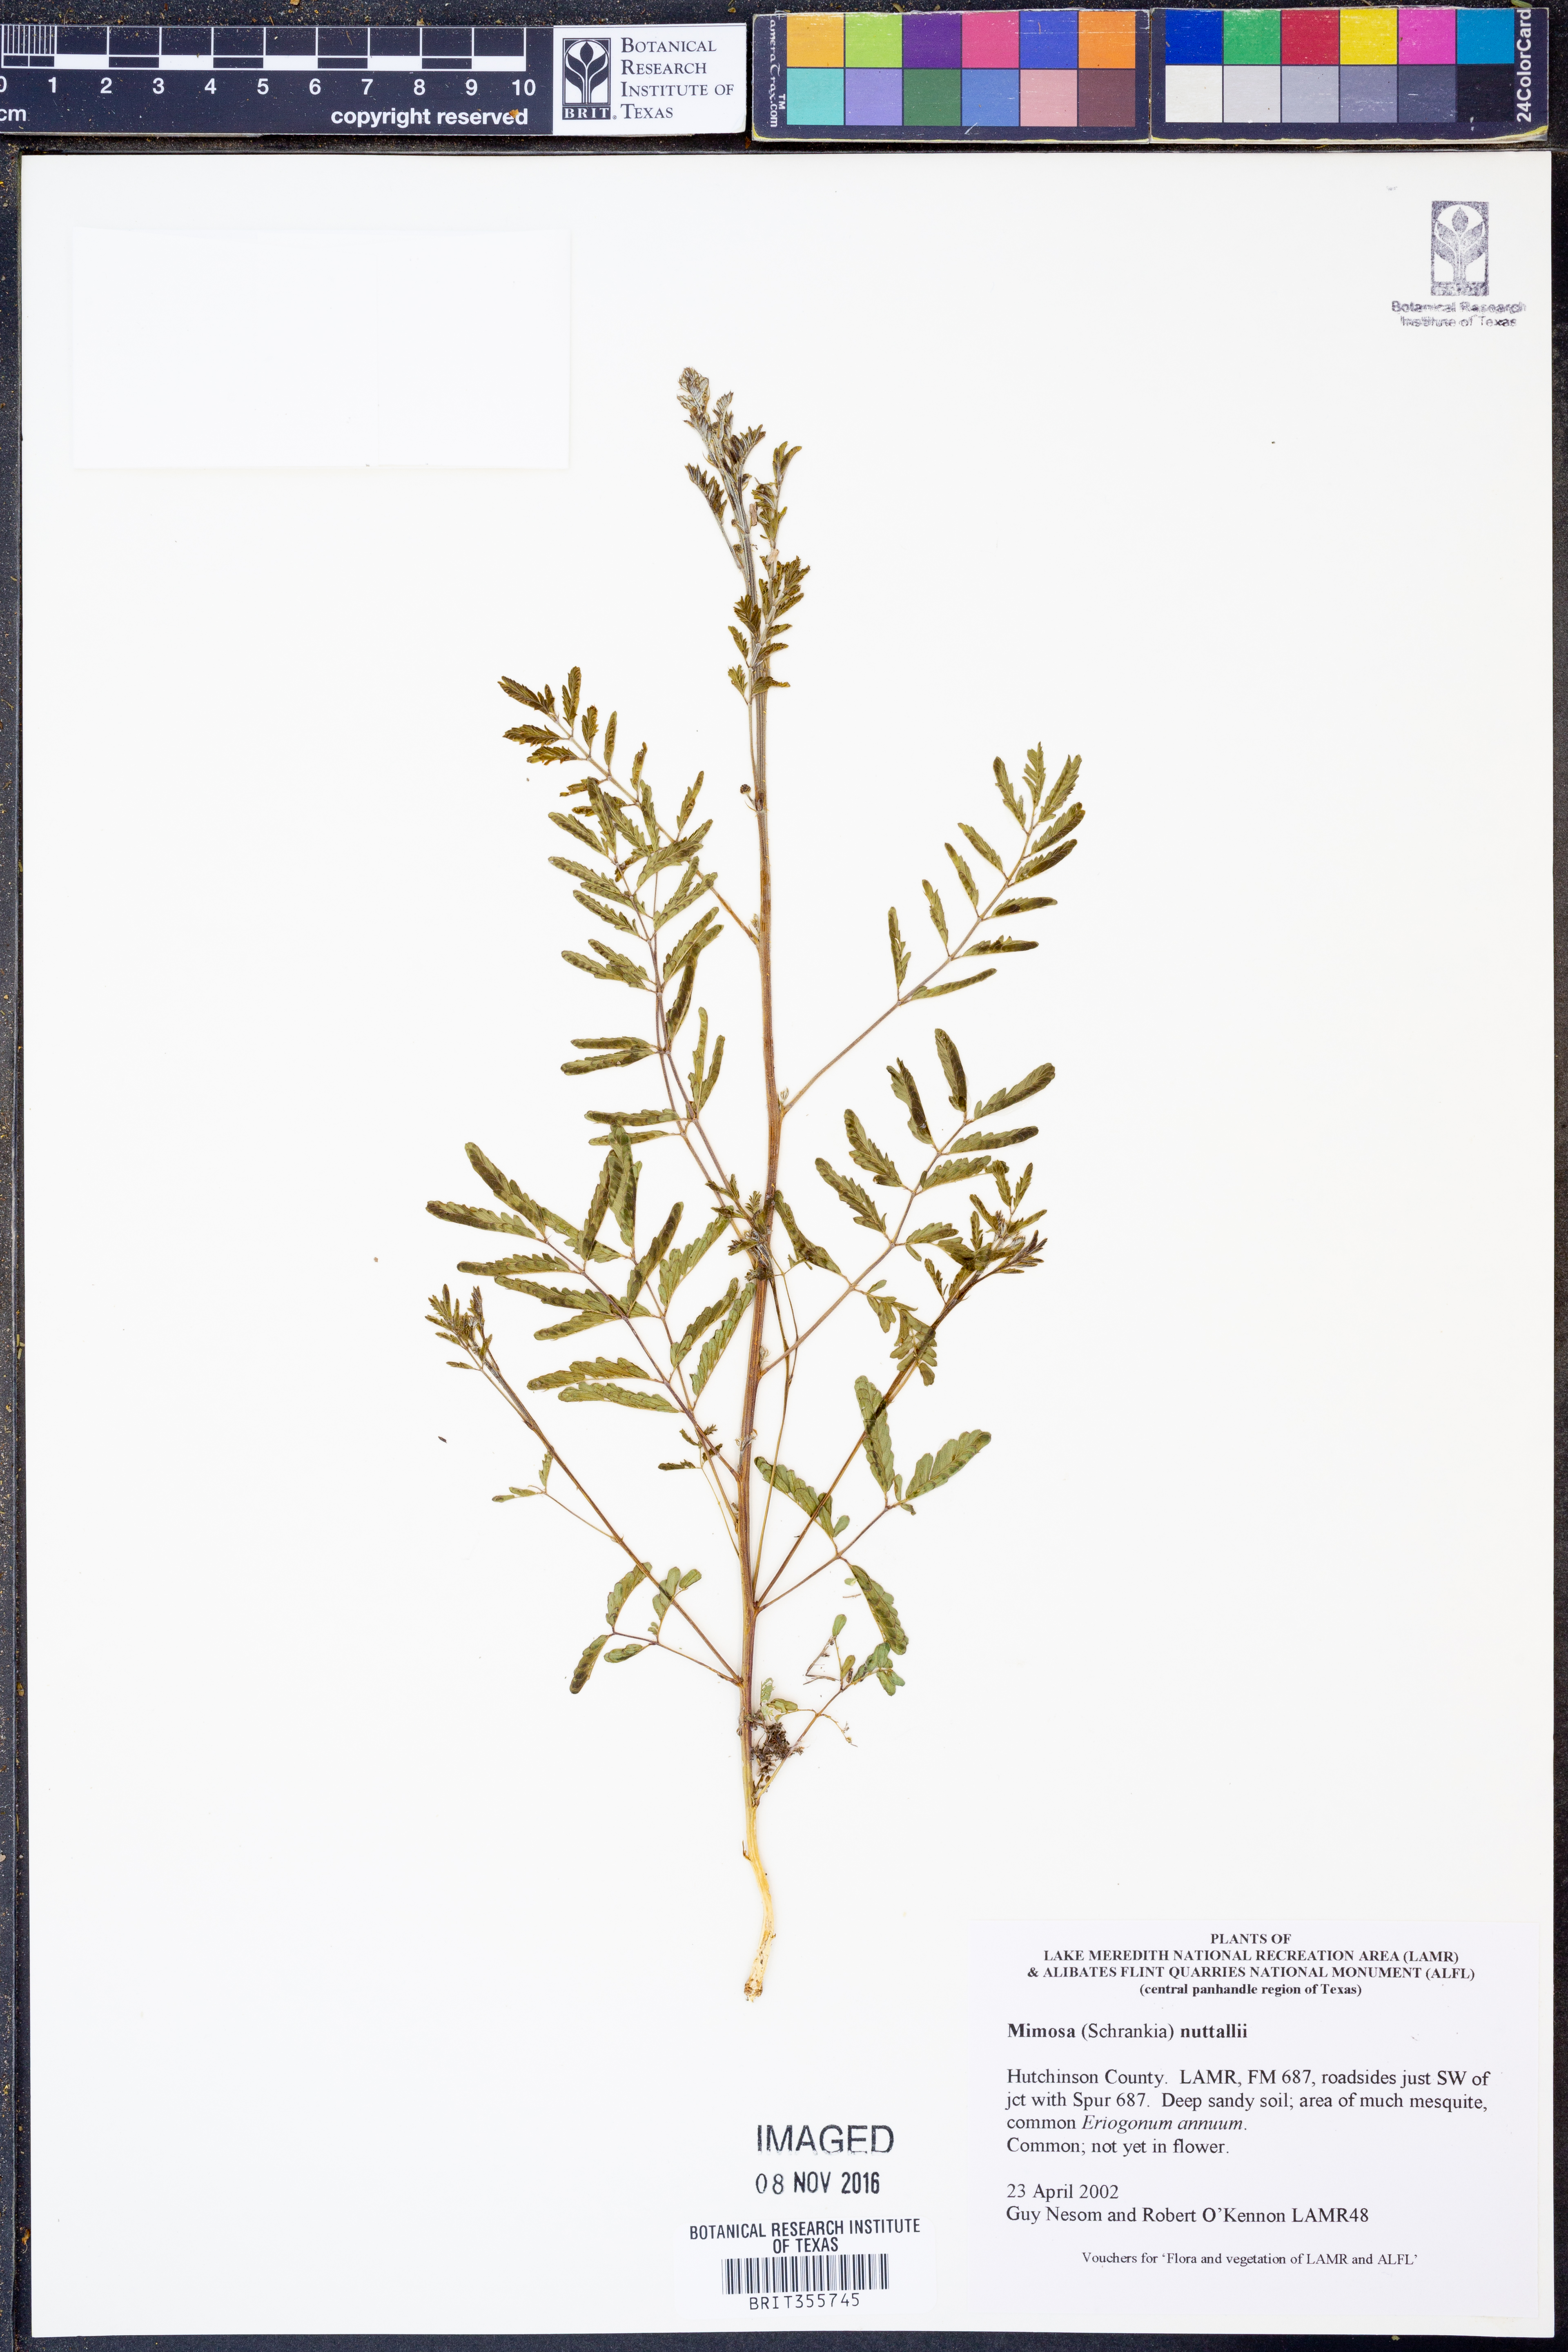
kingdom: Plantae
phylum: Tracheophyta
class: Magnoliopsida
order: Fabales
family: Fabaceae
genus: Mimosa
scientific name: Mimosa
